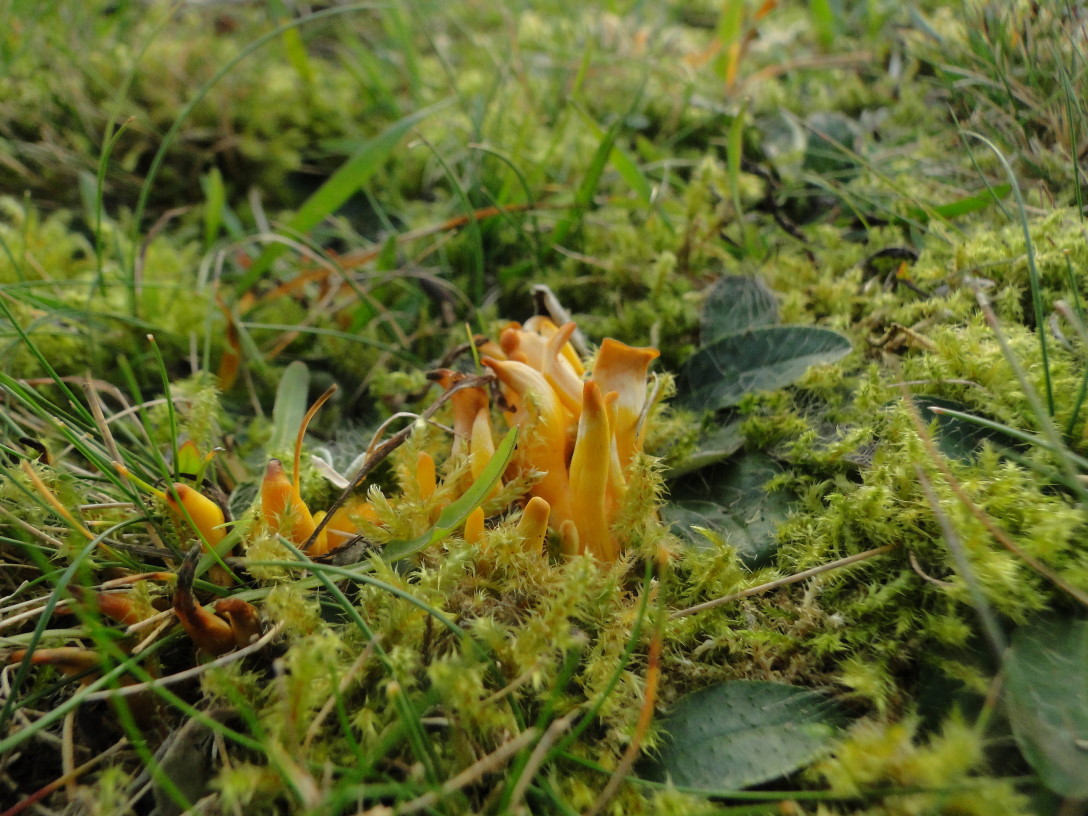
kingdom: Fungi
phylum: Basidiomycota
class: Agaricomycetes
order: Agaricales
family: Clavariaceae
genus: Clavulinopsis
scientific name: Clavulinopsis helvola
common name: orangegul køllesvamp
